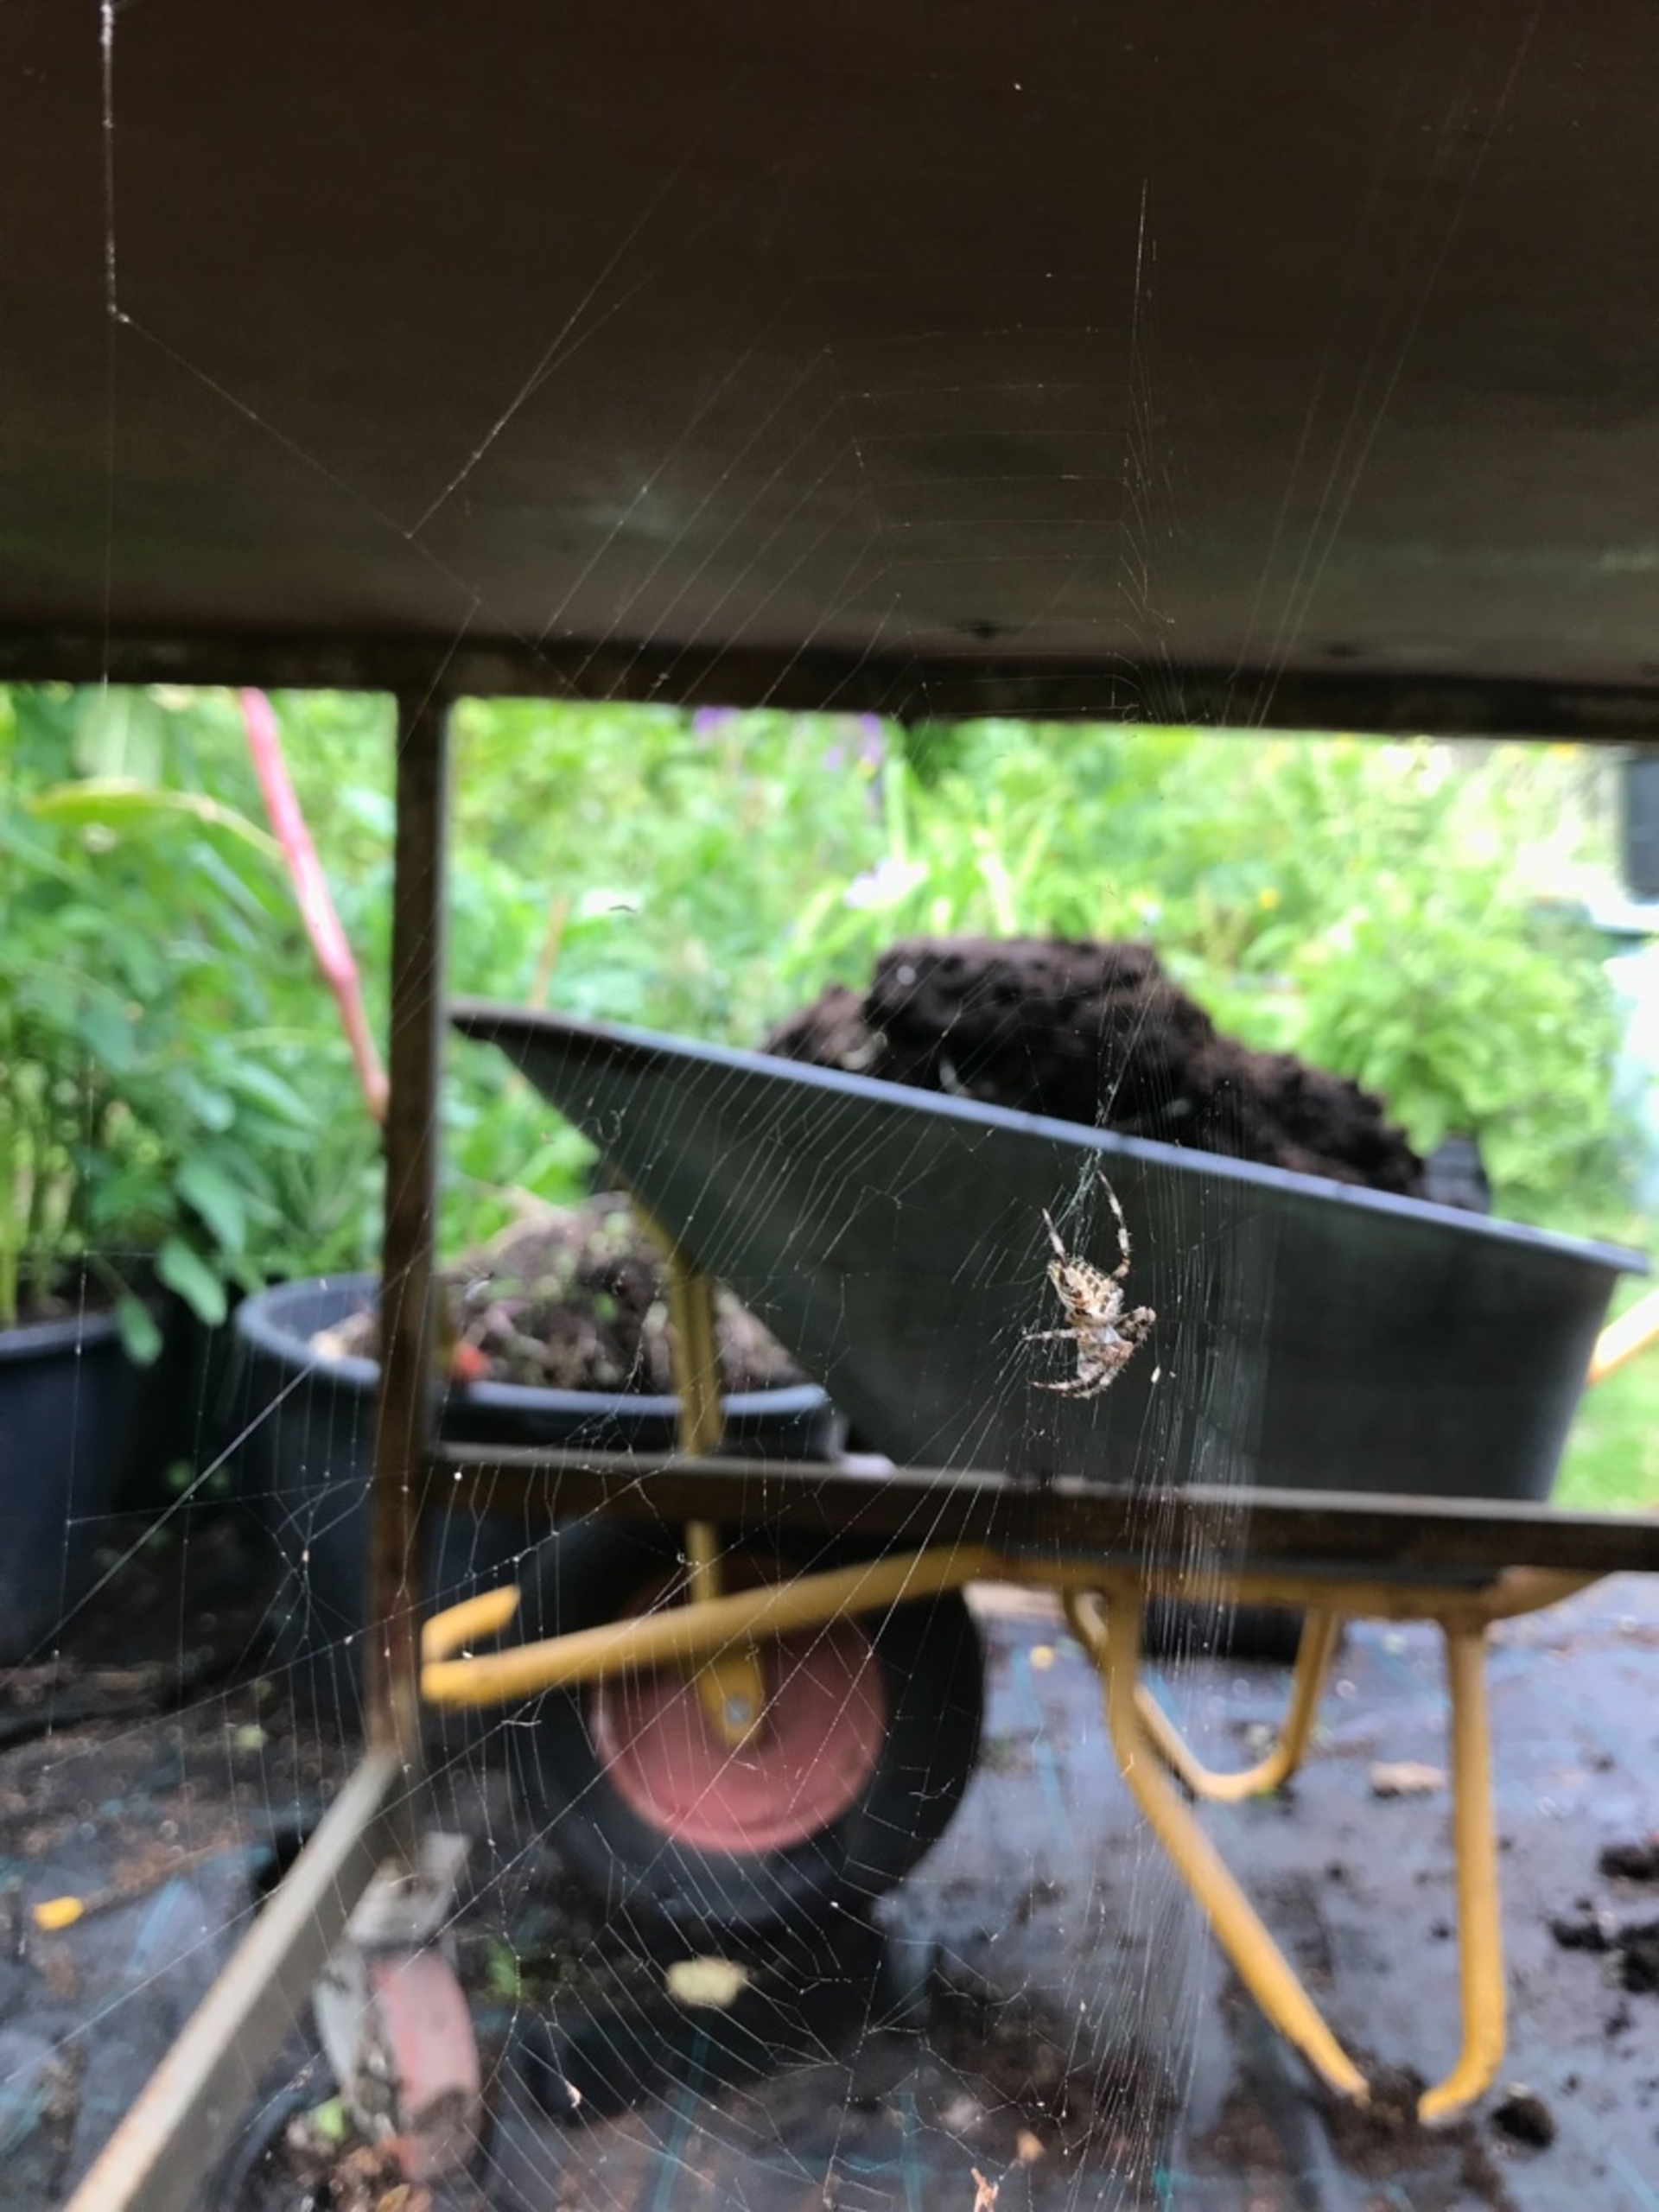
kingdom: Animalia
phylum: Arthropoda
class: Arachnida
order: Araneae
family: Araneidae
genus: Araneus
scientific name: Araneus diadematus
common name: Korsedderkop
